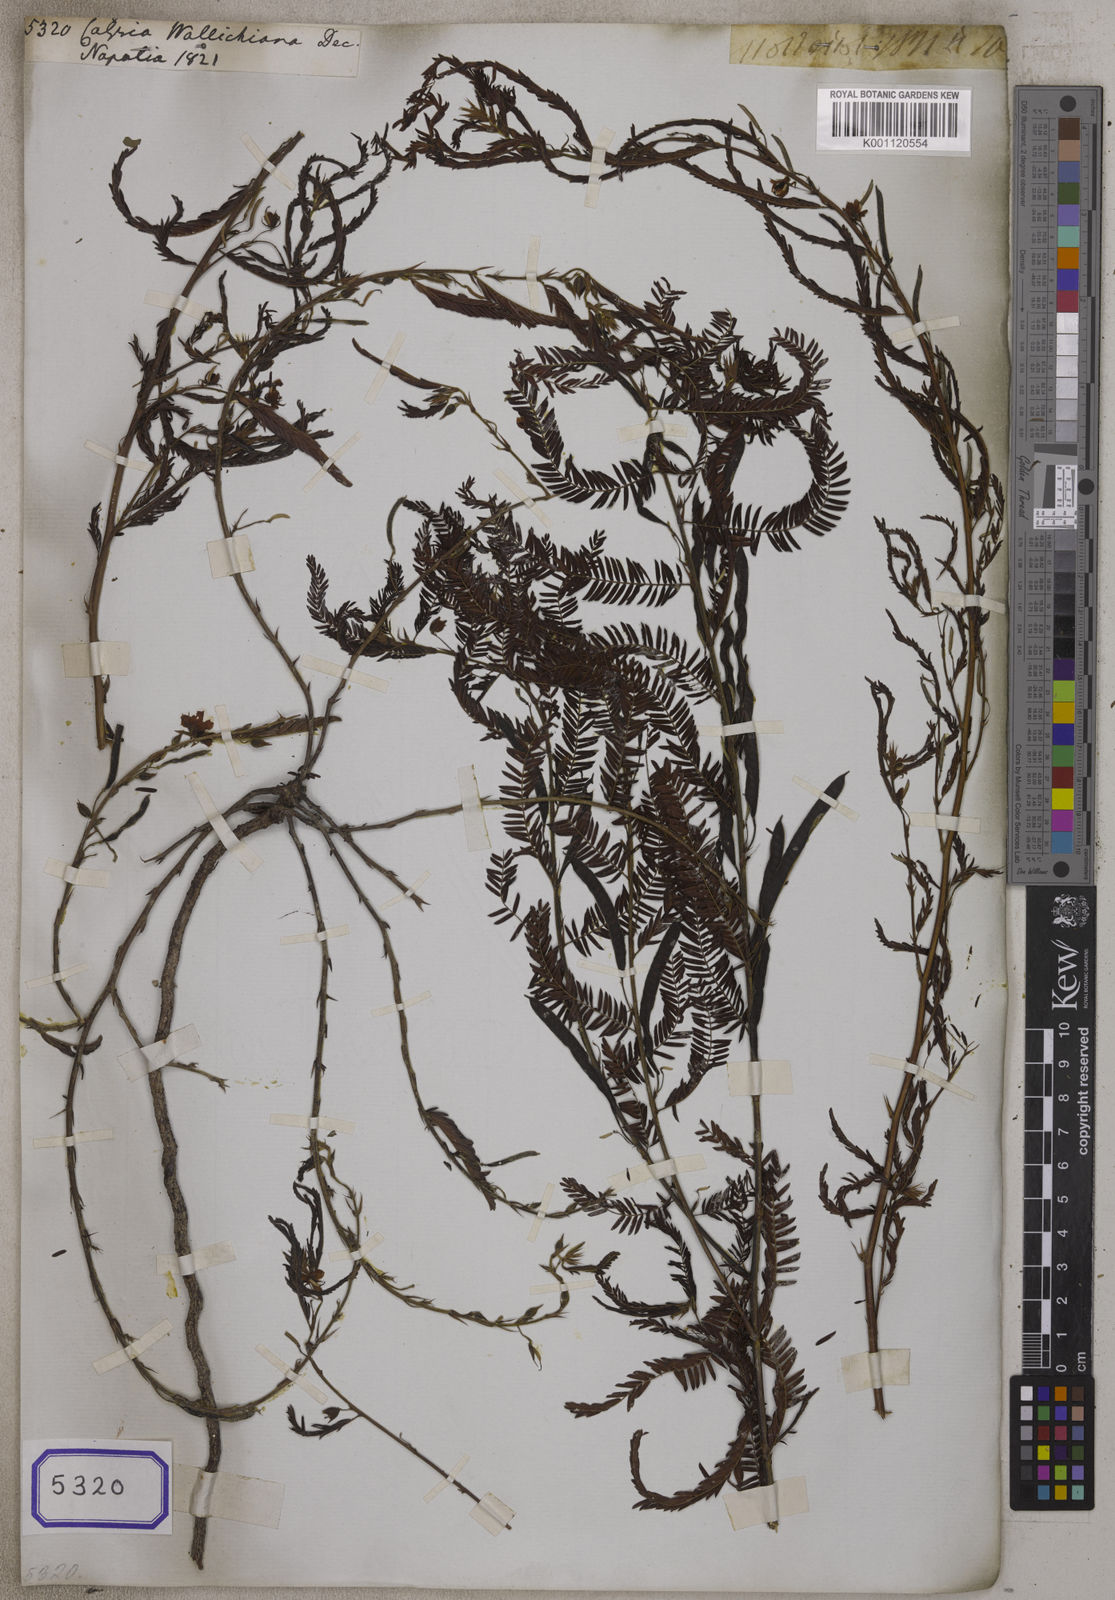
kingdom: Plantae
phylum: Tracheophyta
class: Magnoliopsida
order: Fabales
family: Fabaceae
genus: Chamaecrista
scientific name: Chamaecrista wallichiana
